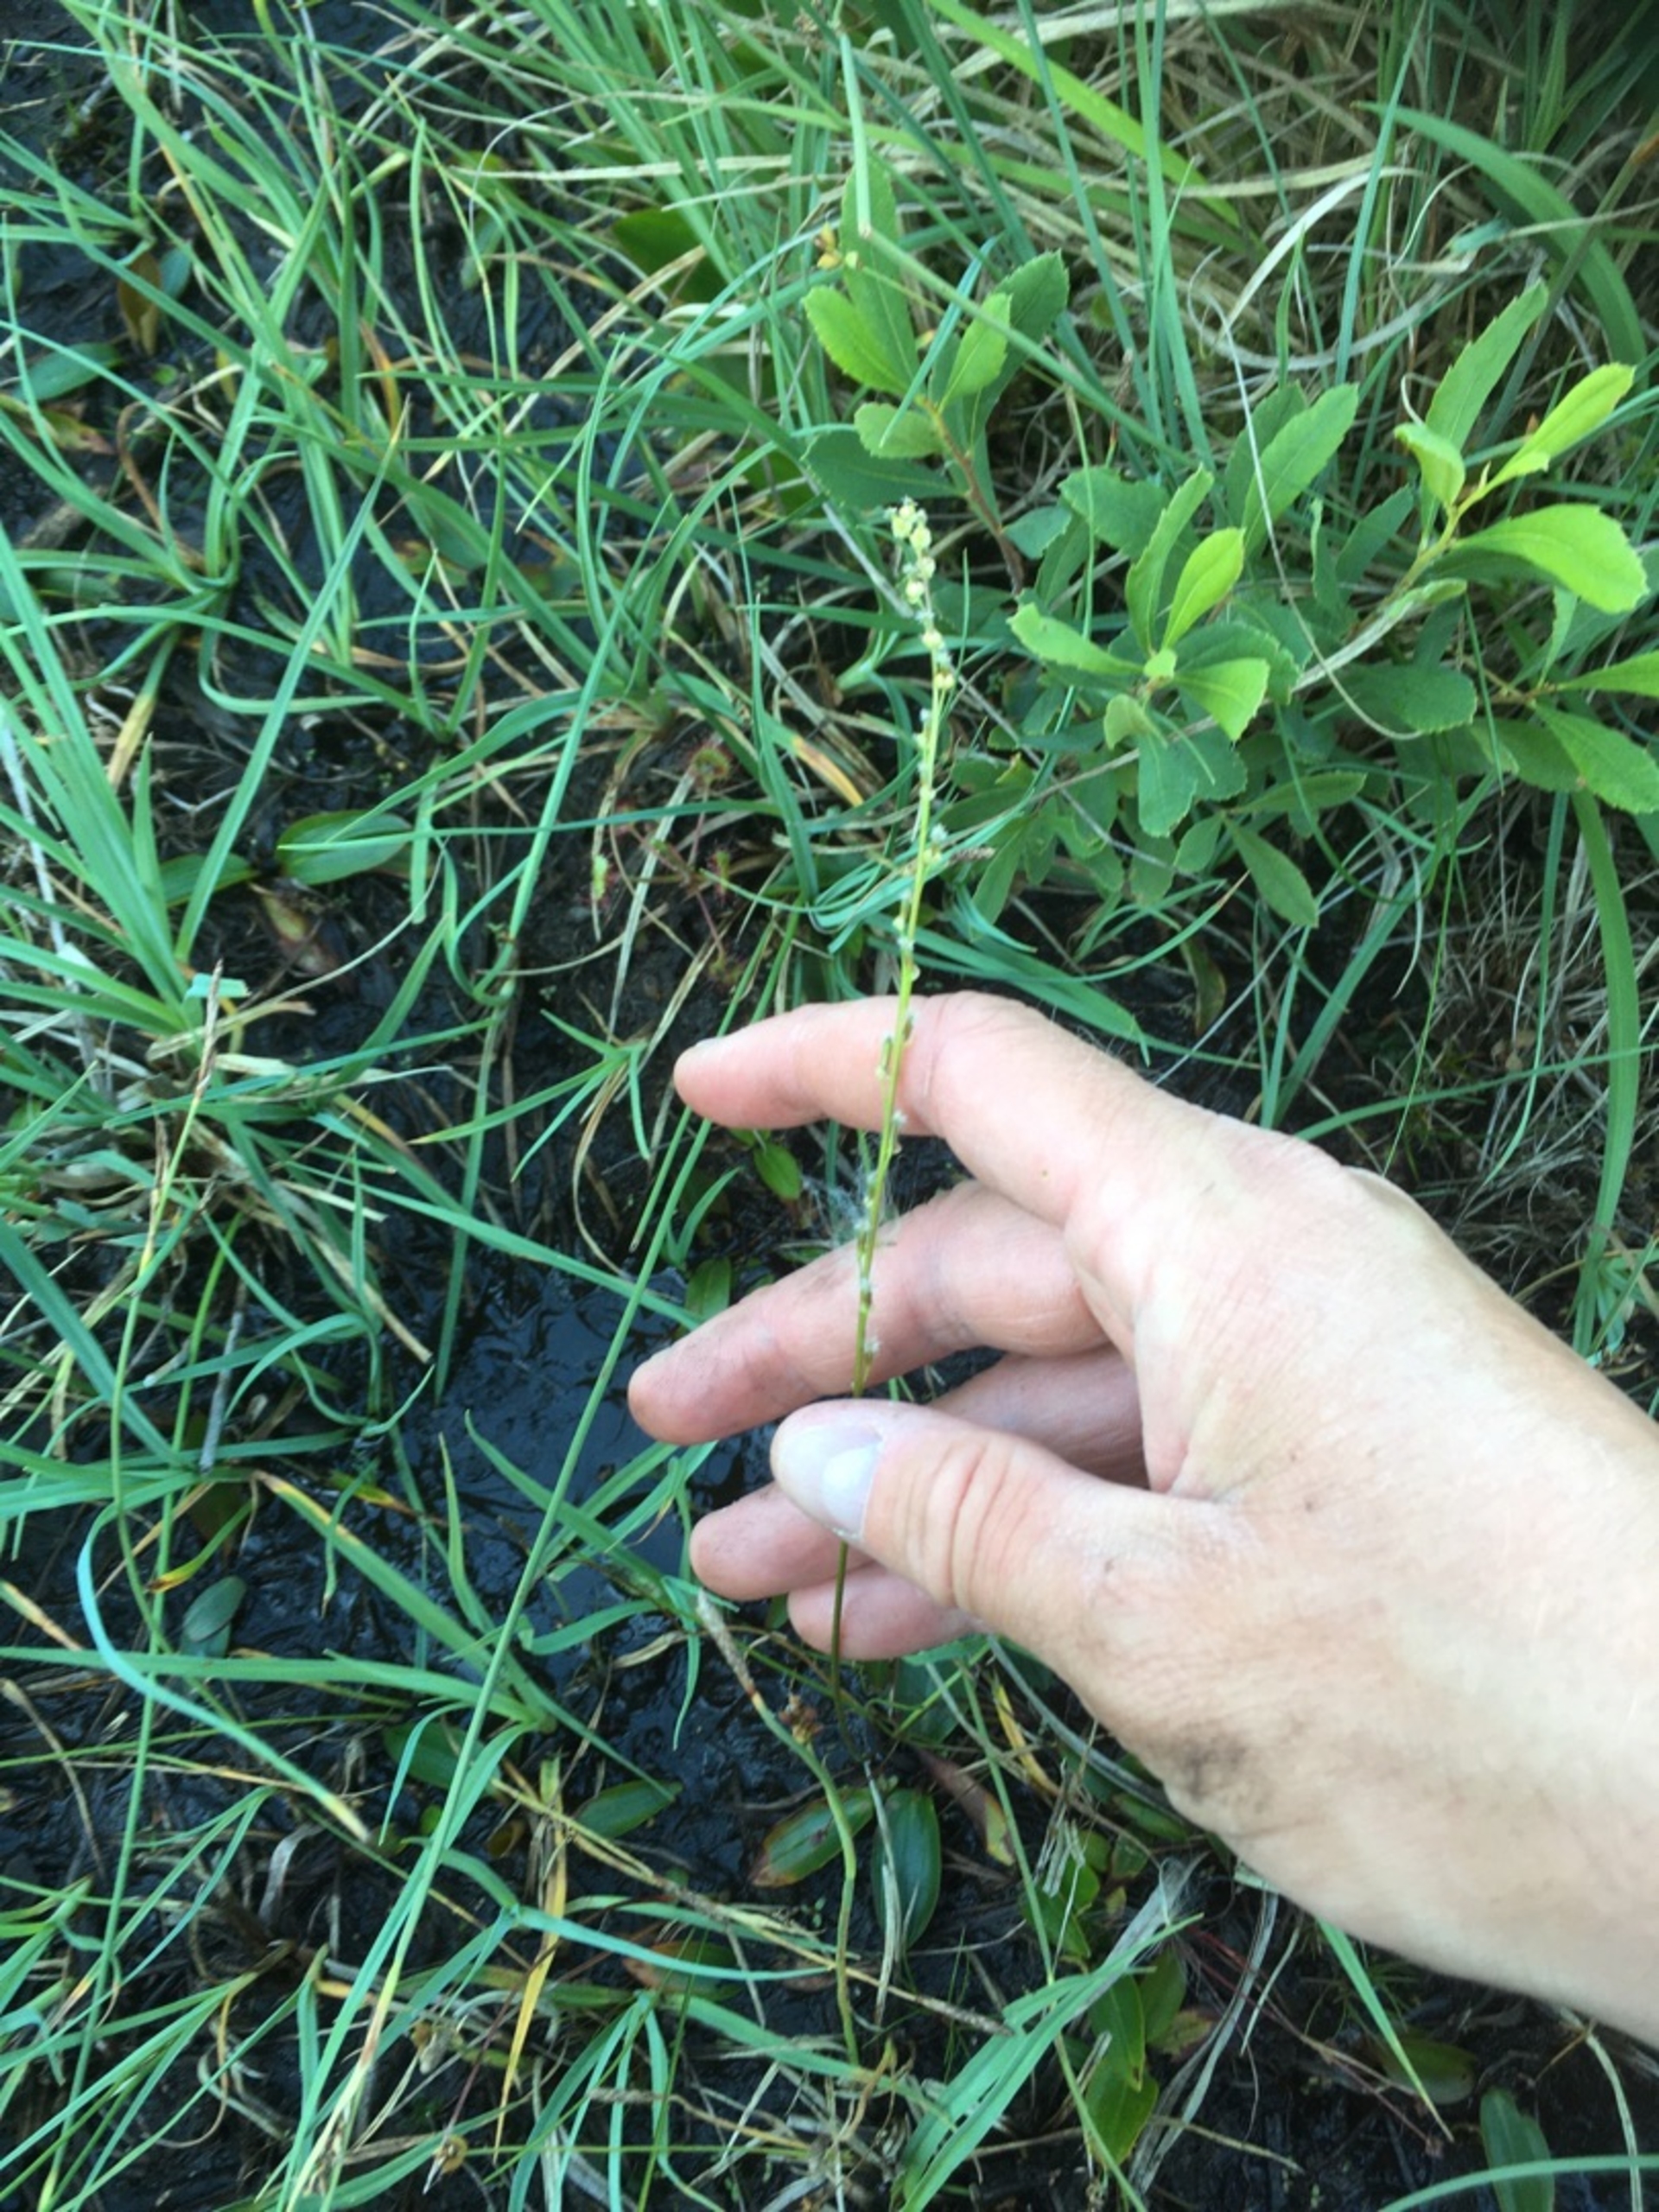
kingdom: Plantae
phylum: Tracheophyta
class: Liliopsida
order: Alismatales
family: Juncaginaceae
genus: Triglochin
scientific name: Triglochin palustris
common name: Kær-trehage
